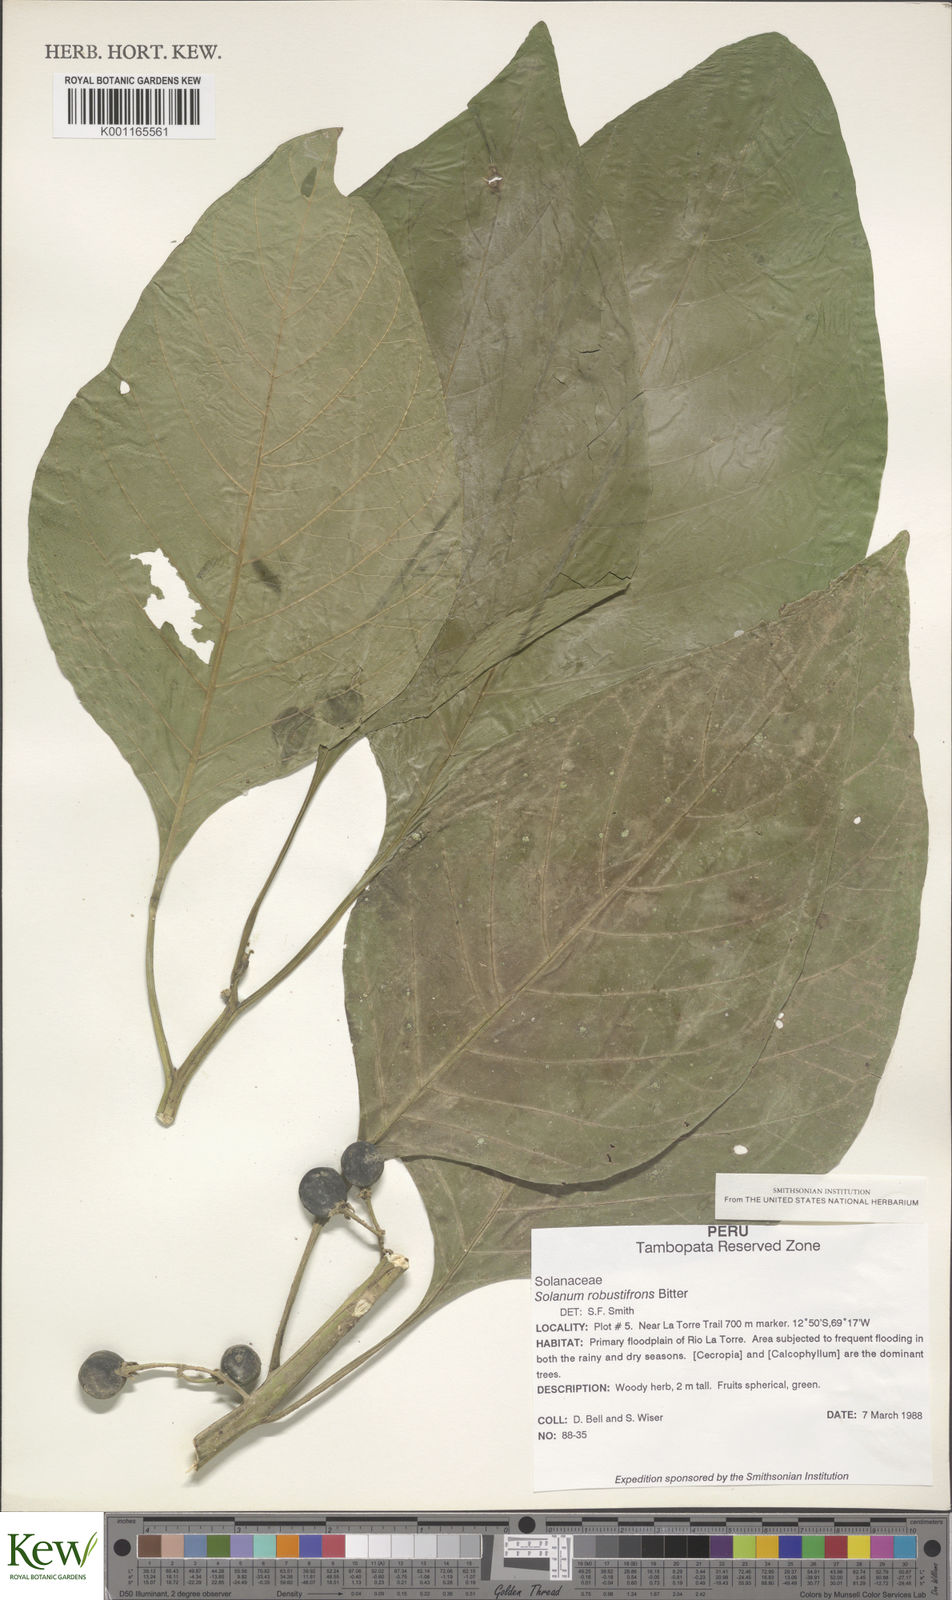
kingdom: Plantae
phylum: Tracheophyta
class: Magnoliopsida
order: Solanales
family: Solanaceae
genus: Solanum
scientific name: Solanum robustifrons
